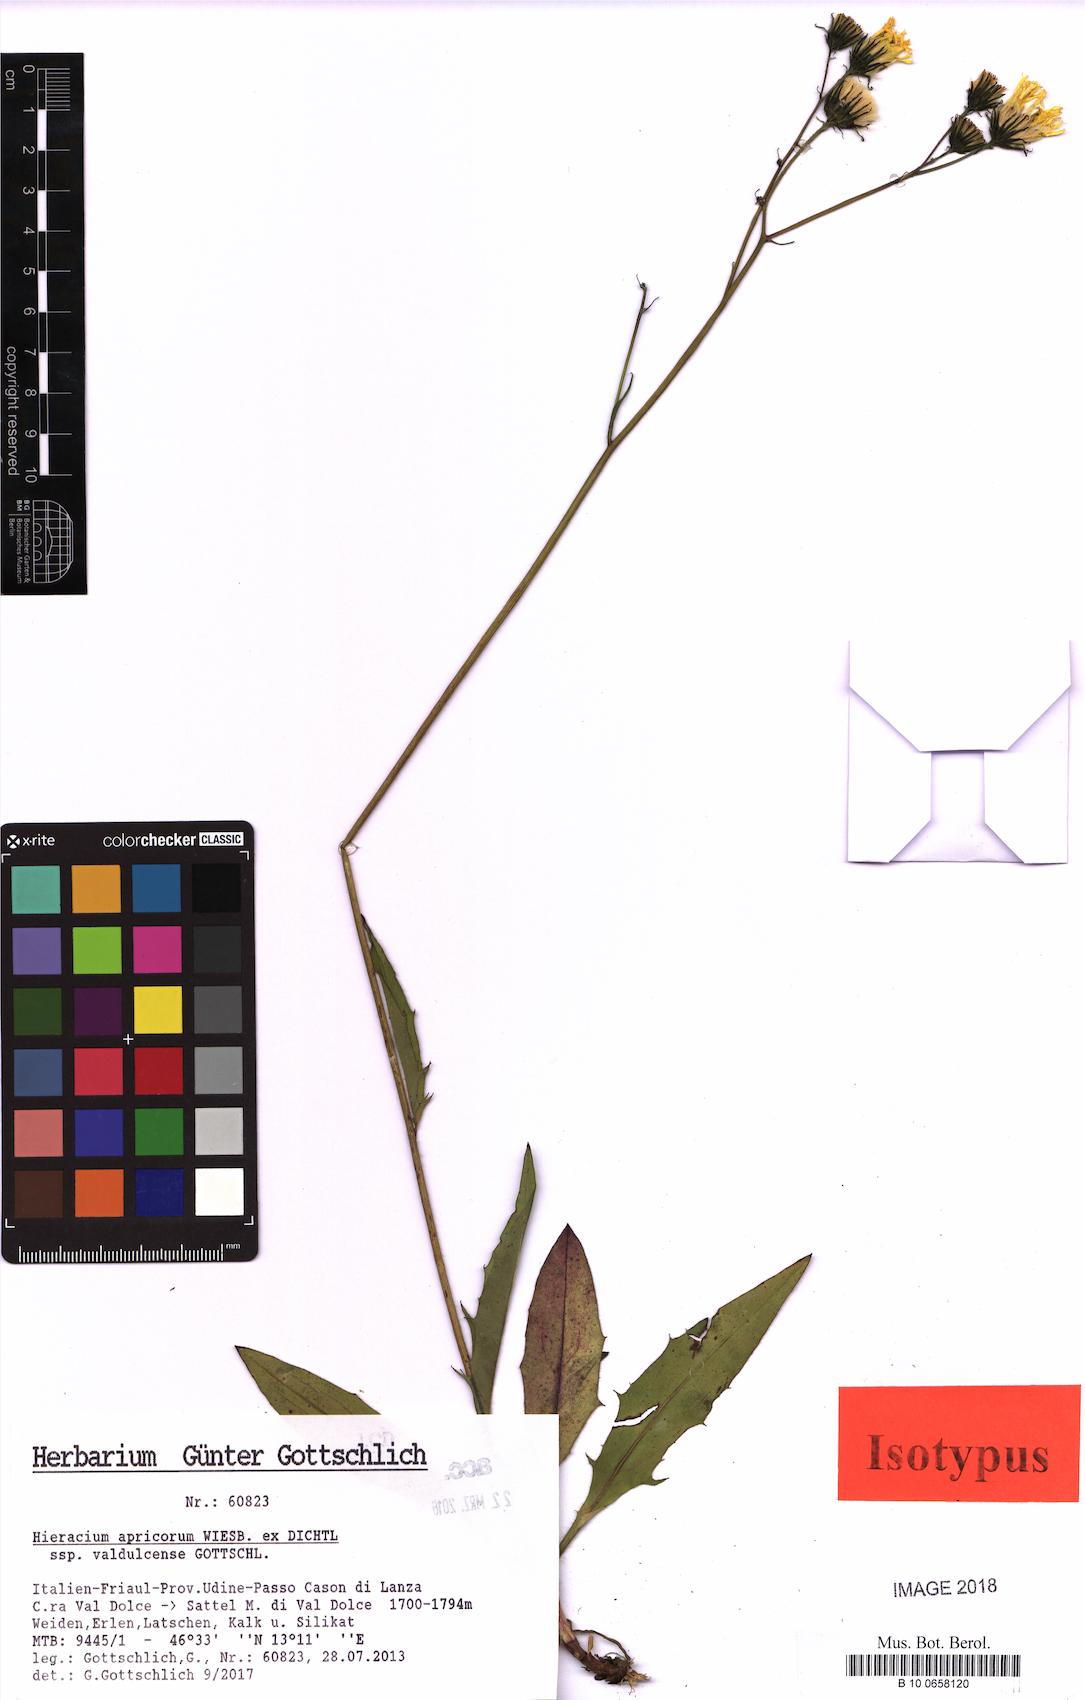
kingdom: Plantae
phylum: Tracheophyta
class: Magnoliopsida
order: Asterales
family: Asteraceae
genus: Hieracium
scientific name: Hieracium apricorum
